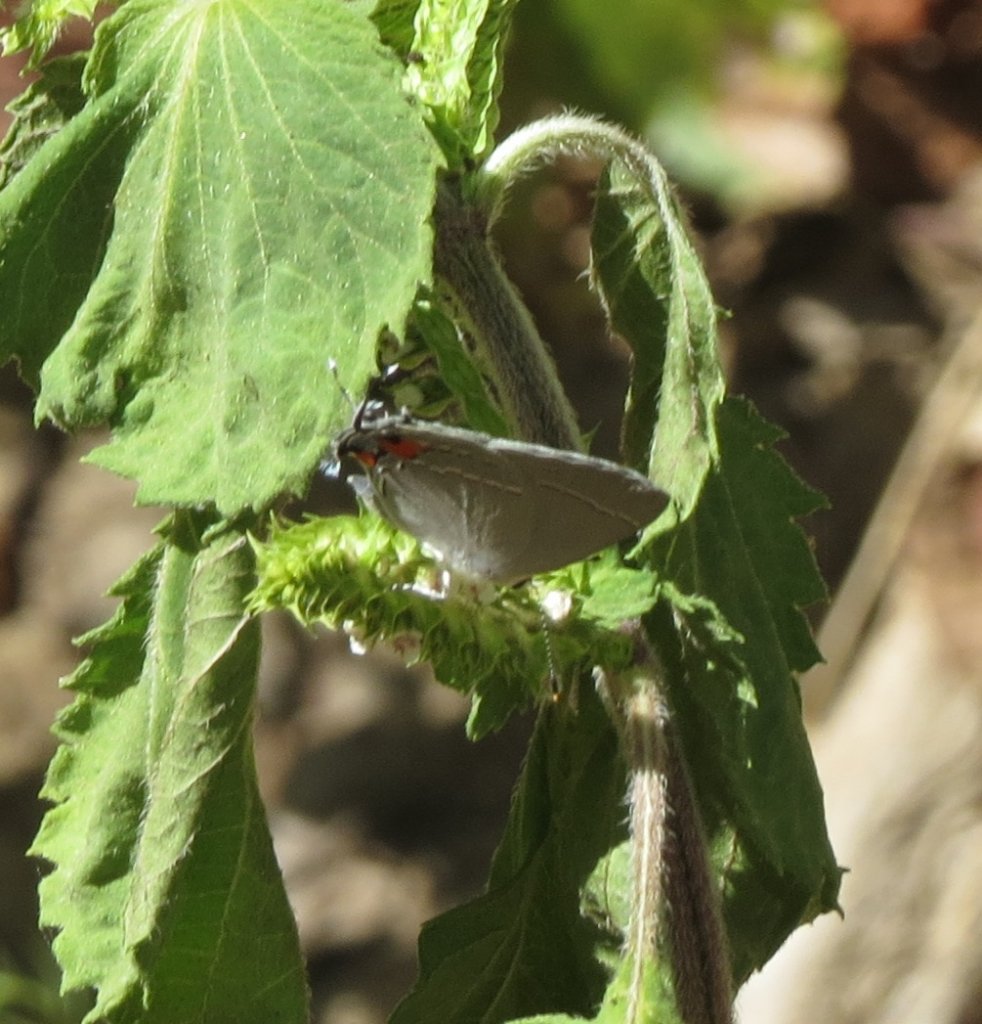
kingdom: Animalia
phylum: Arthropoda
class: Insecta
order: Lepidoptera
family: Lycaenidae
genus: Strymon
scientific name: Strymon melinus
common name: Gray Hairstreak
